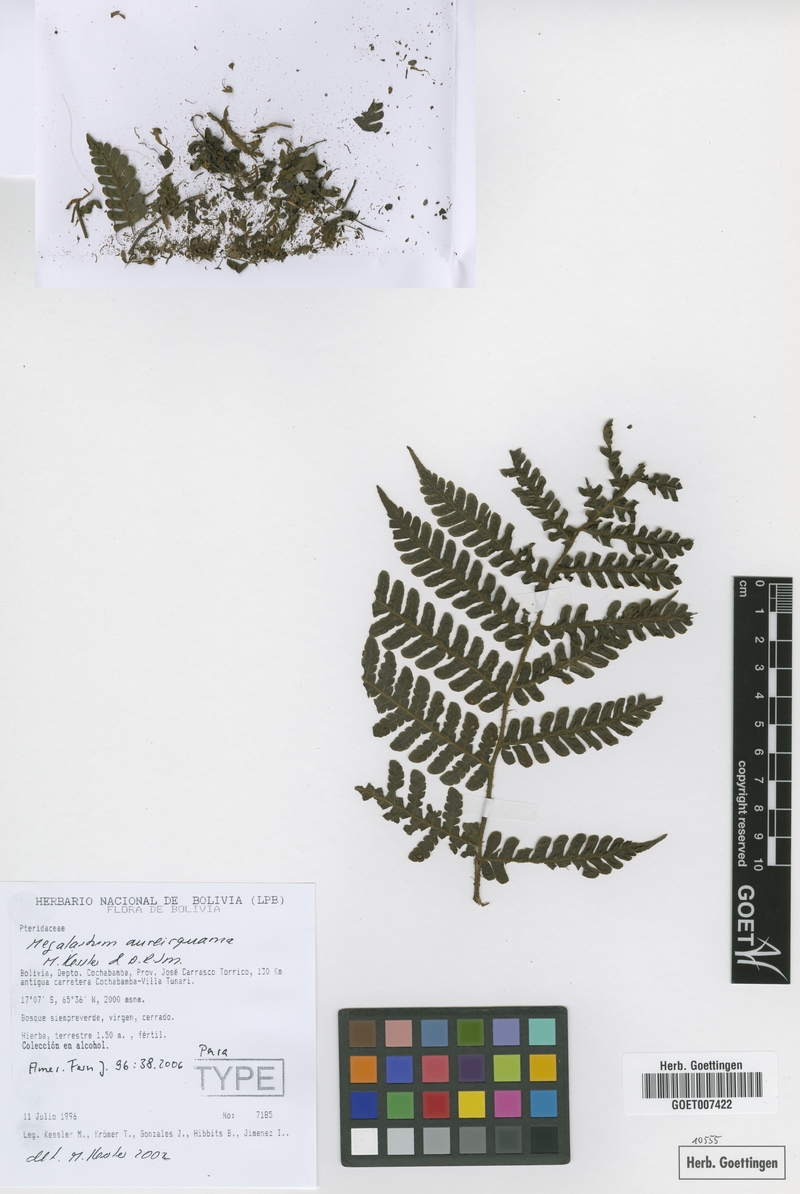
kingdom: Plantae
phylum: Tracheophyta
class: Polypodiopsida
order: Polypodiales
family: Dryopteridaceae
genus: Megalastrum
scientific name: Megalastrum aureisquama
